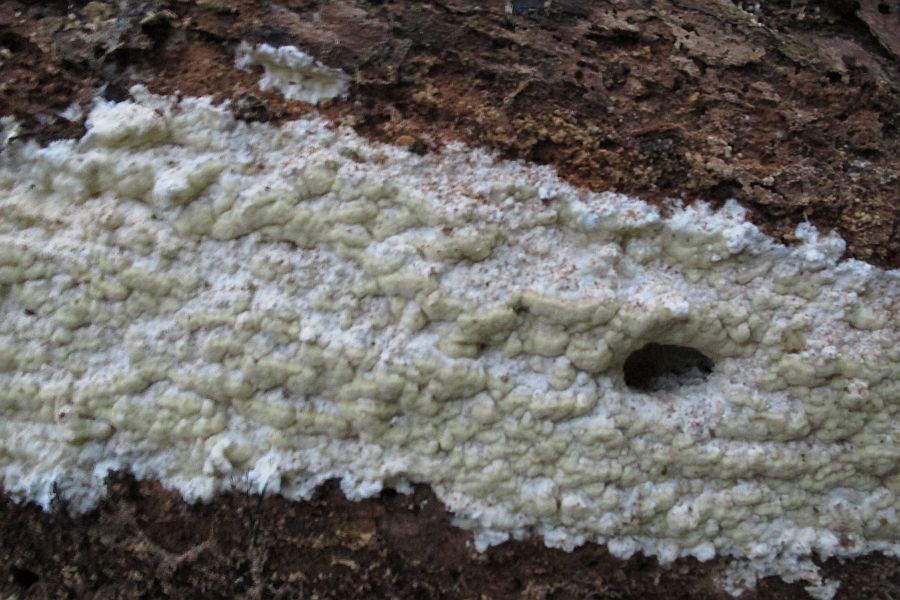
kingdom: Fungi
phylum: Basidiomycota
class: Agaricomycetes
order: Polyporales
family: Fomitopsidaceae
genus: Daedalea
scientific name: Daedalea xantha
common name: gul sejporesvamp
